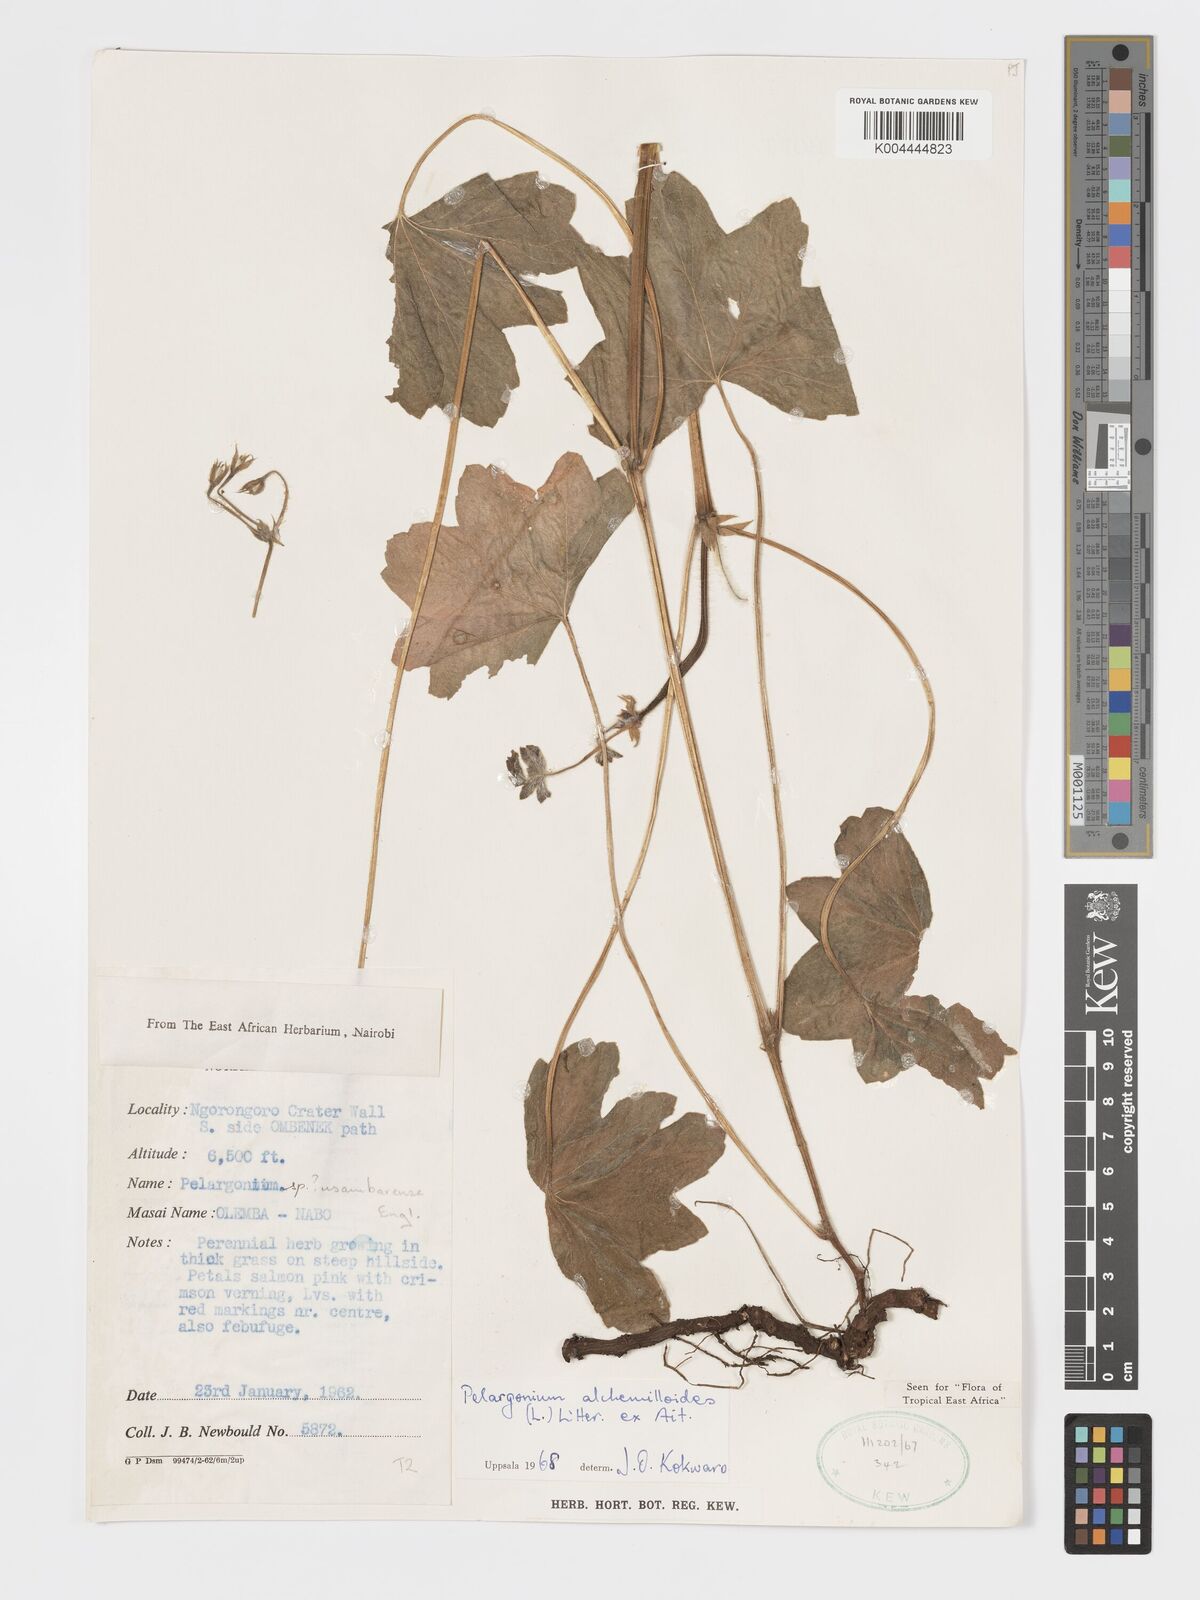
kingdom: Plantae
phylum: Tracheophyta
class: Magnoliopsida
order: Geraniales
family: Geraniaceae
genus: Pelargonium
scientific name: Pelargonium alchemilloides
